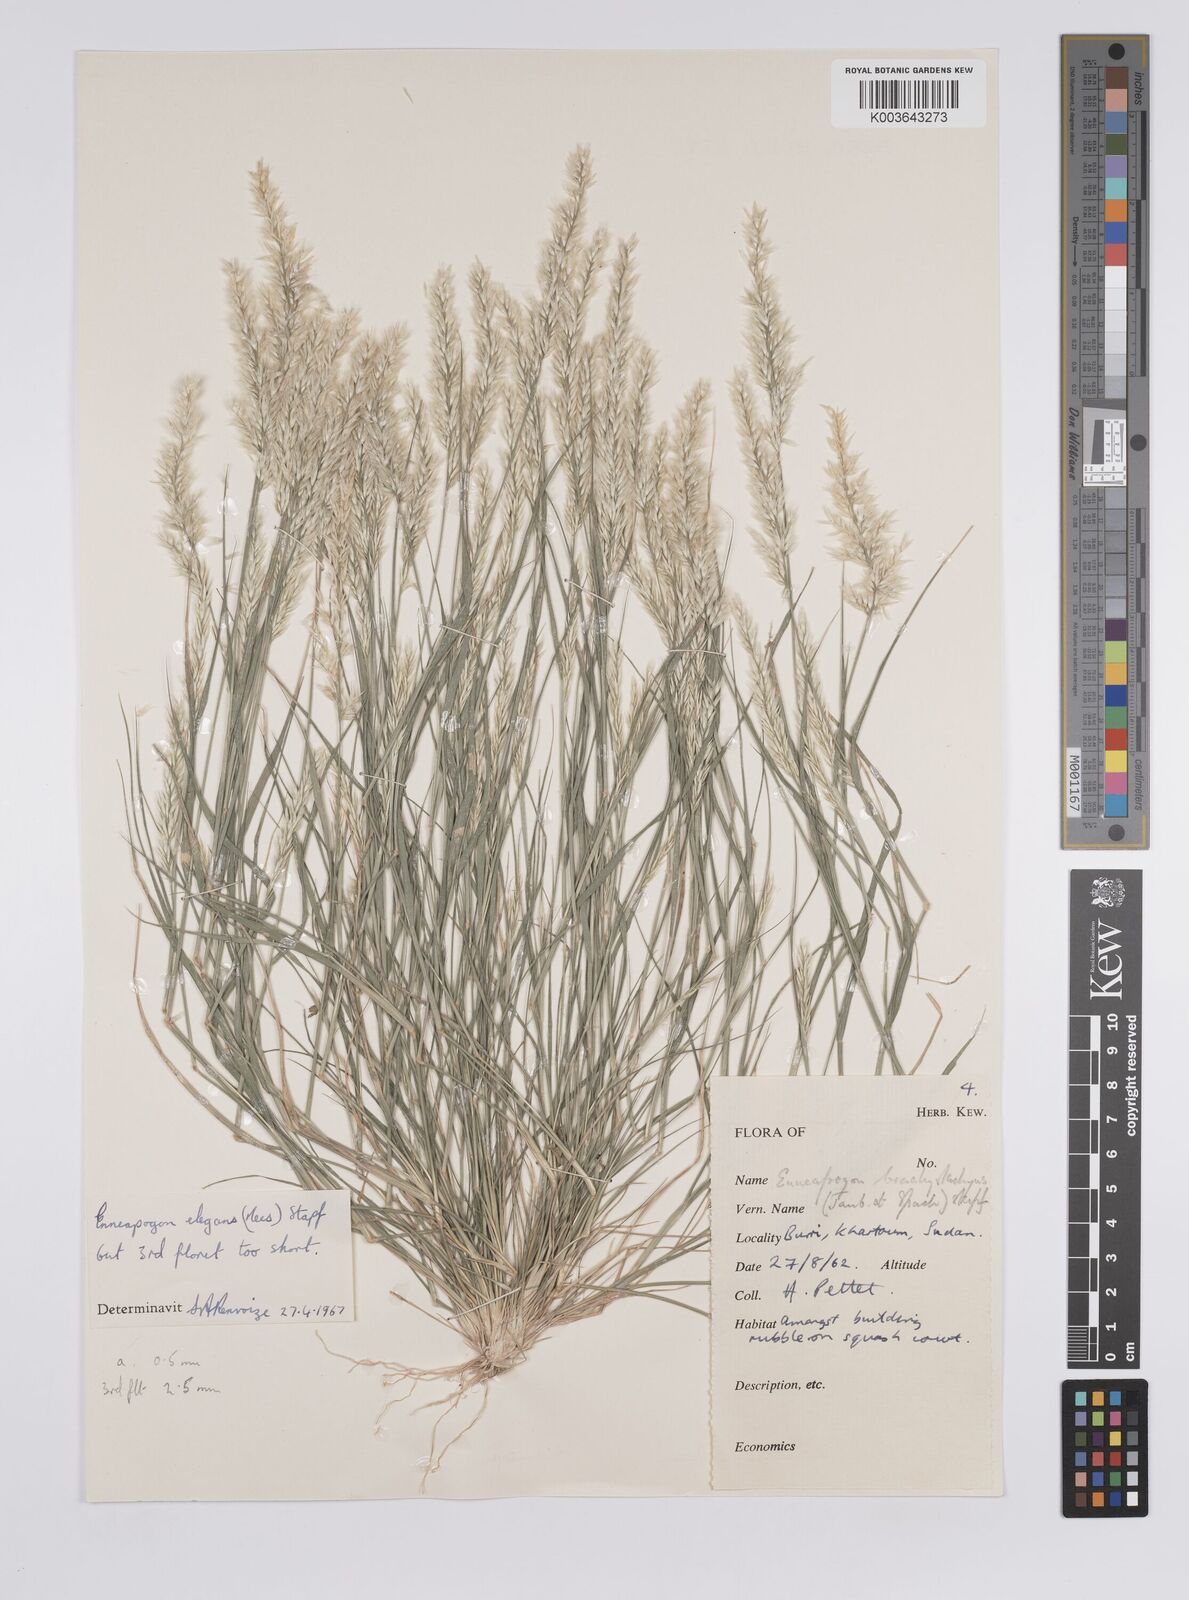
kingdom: Plantae
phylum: Tracheophyta
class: Liliopsida
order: Poales
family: Poaceae
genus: Enneapogon
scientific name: Enneapogon persicus
